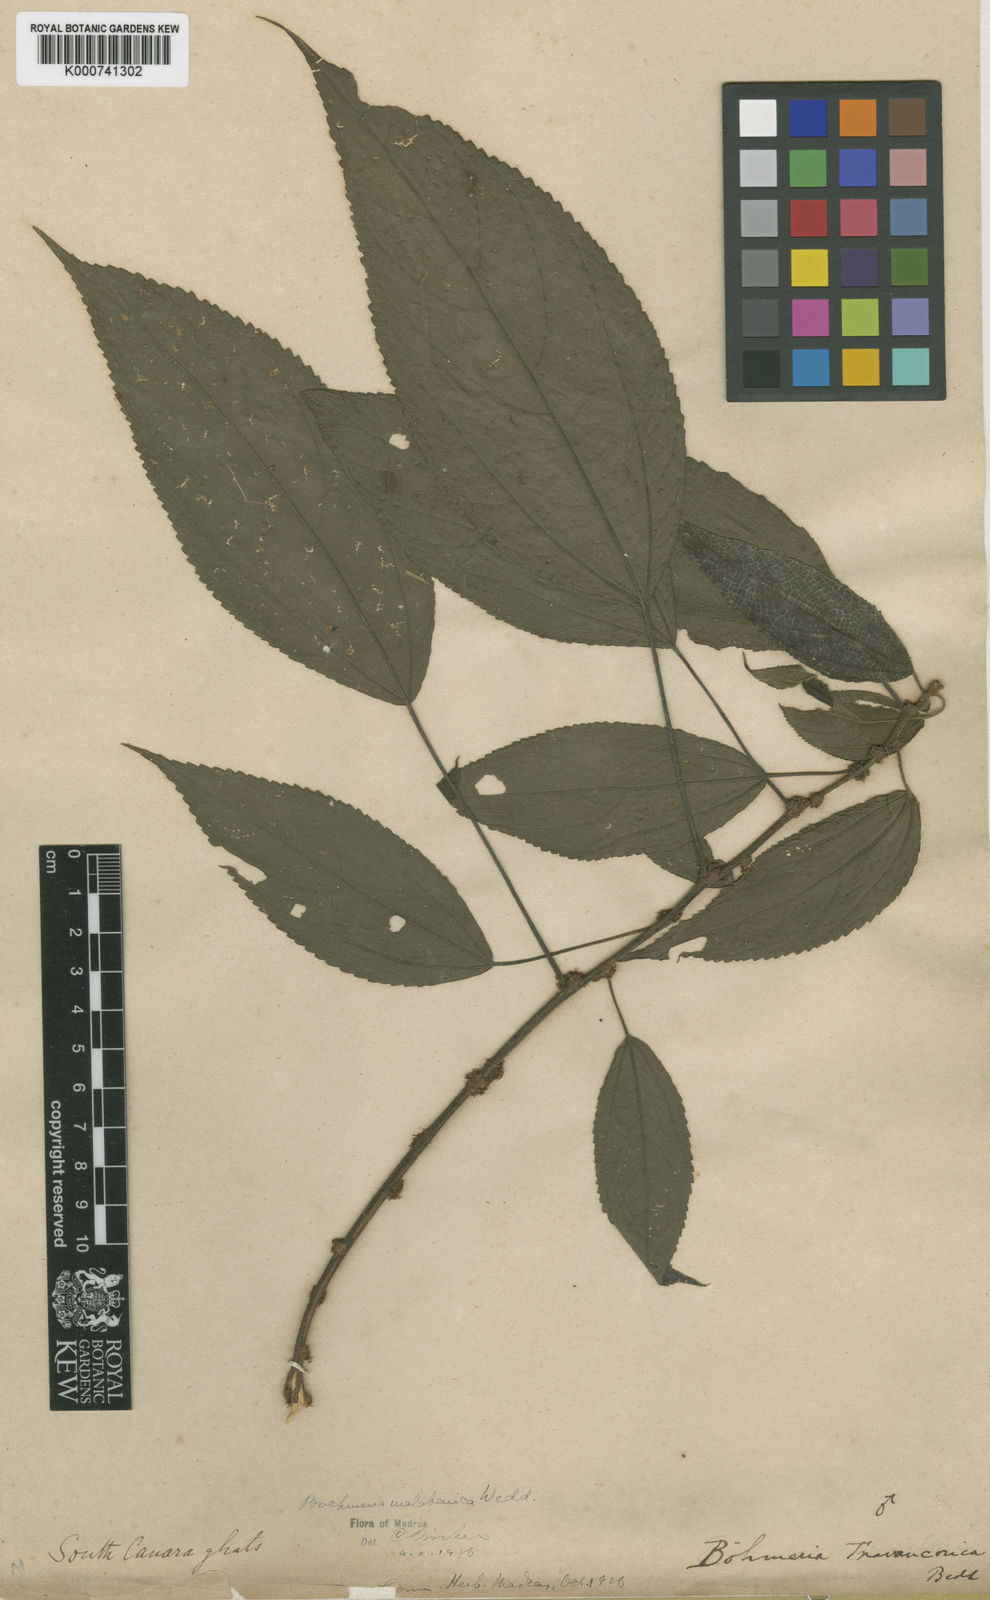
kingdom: Plantae
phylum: Tracheophyta
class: Magnoliopsida
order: Rosales
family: Urticaceae
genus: Boehmeria
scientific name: Boehmeria depauperata
